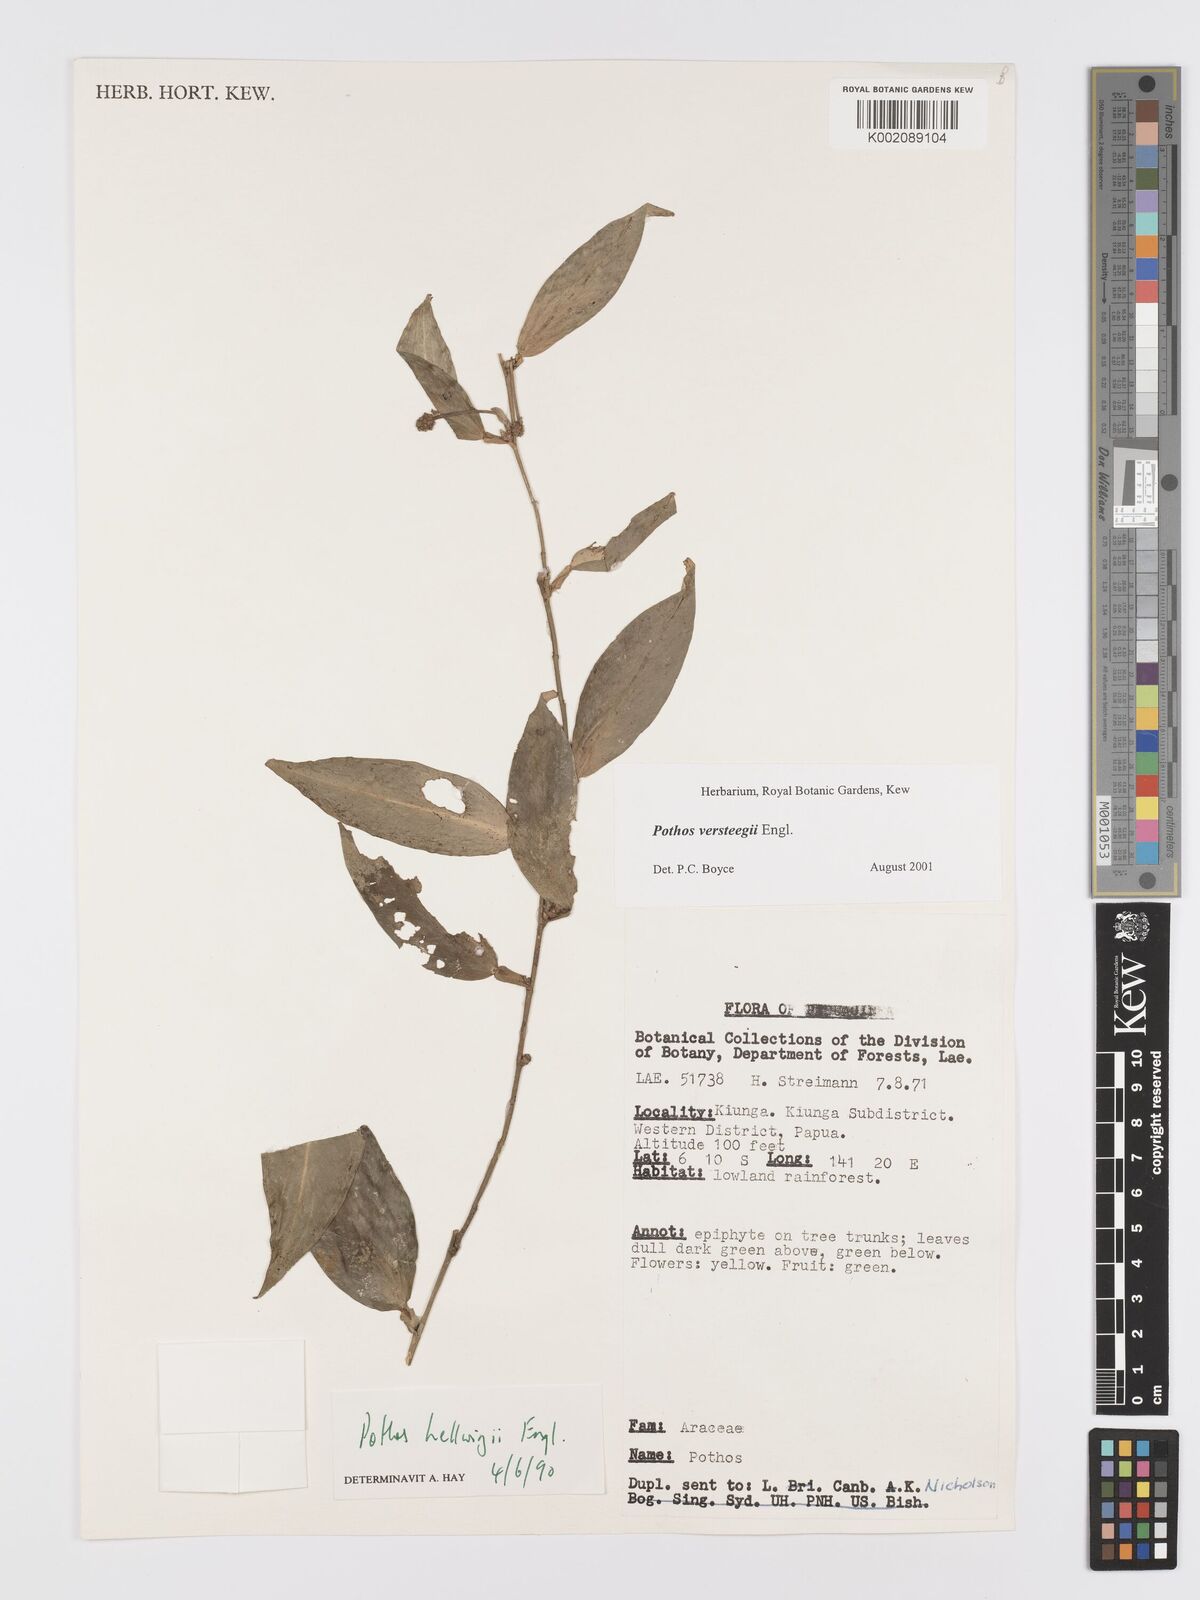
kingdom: Plantae
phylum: Tracheophyta
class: Liliopsida
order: Alismatales
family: Araceae
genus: Pothos
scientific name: Pothos versteegii
